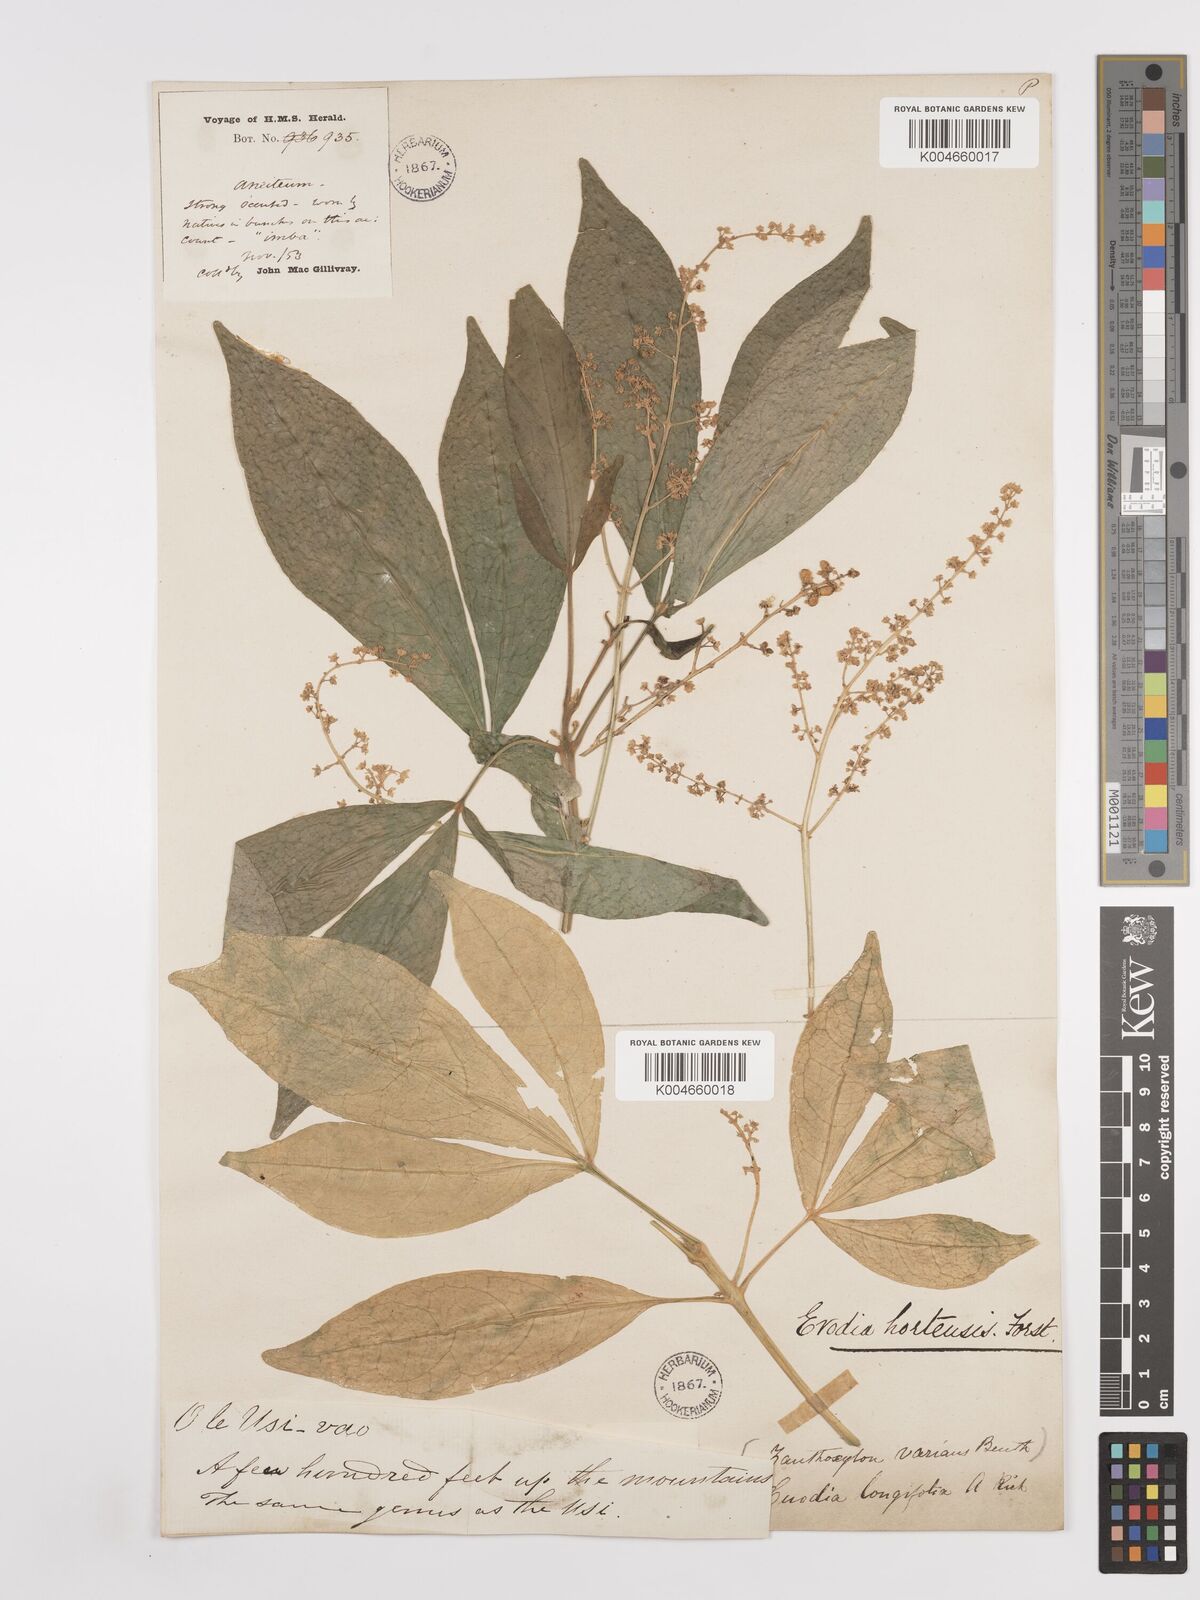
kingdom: Plantae
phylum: Tracheophyta
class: Magnoliopsida
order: Sapindales
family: Rutaceae
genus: Euodia
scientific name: Euodia hortensis
